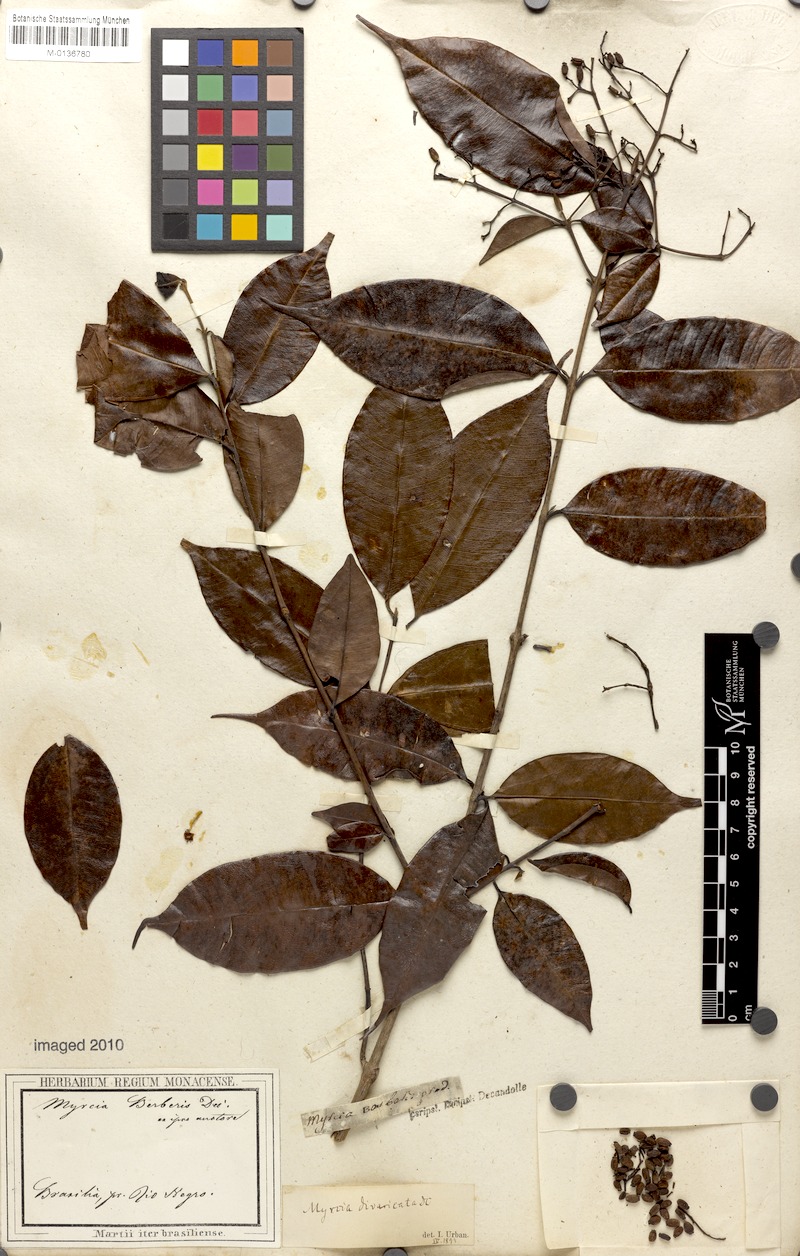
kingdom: Plantae
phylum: Tracheophyta
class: Magnoliopsida
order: Myrtales
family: Myrtaceae
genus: Myrcia
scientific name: Myrcia splendens
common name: Surinam cherry
